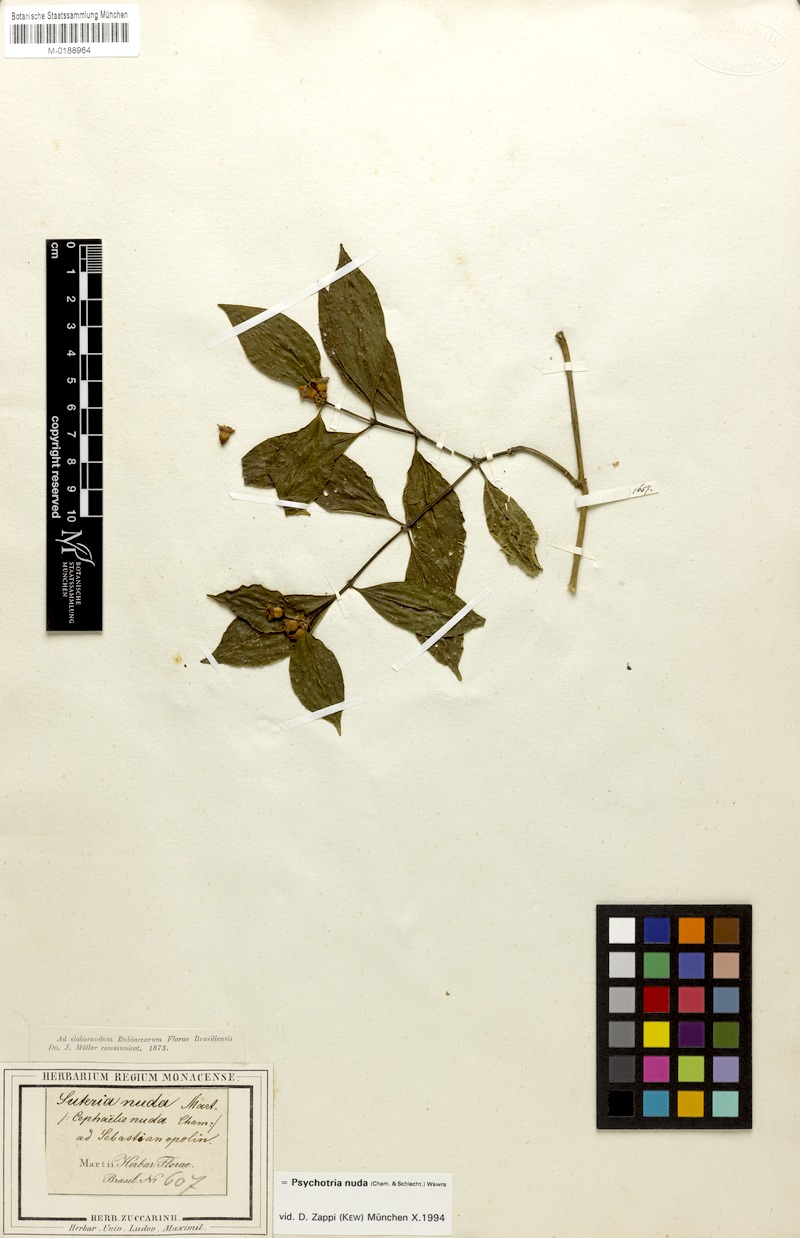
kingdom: Plantae
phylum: Tracheophyta
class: Magnoliopsida
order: Gentianales
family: Rubiaceae
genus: Psychotria
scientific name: Psychotria nuda
